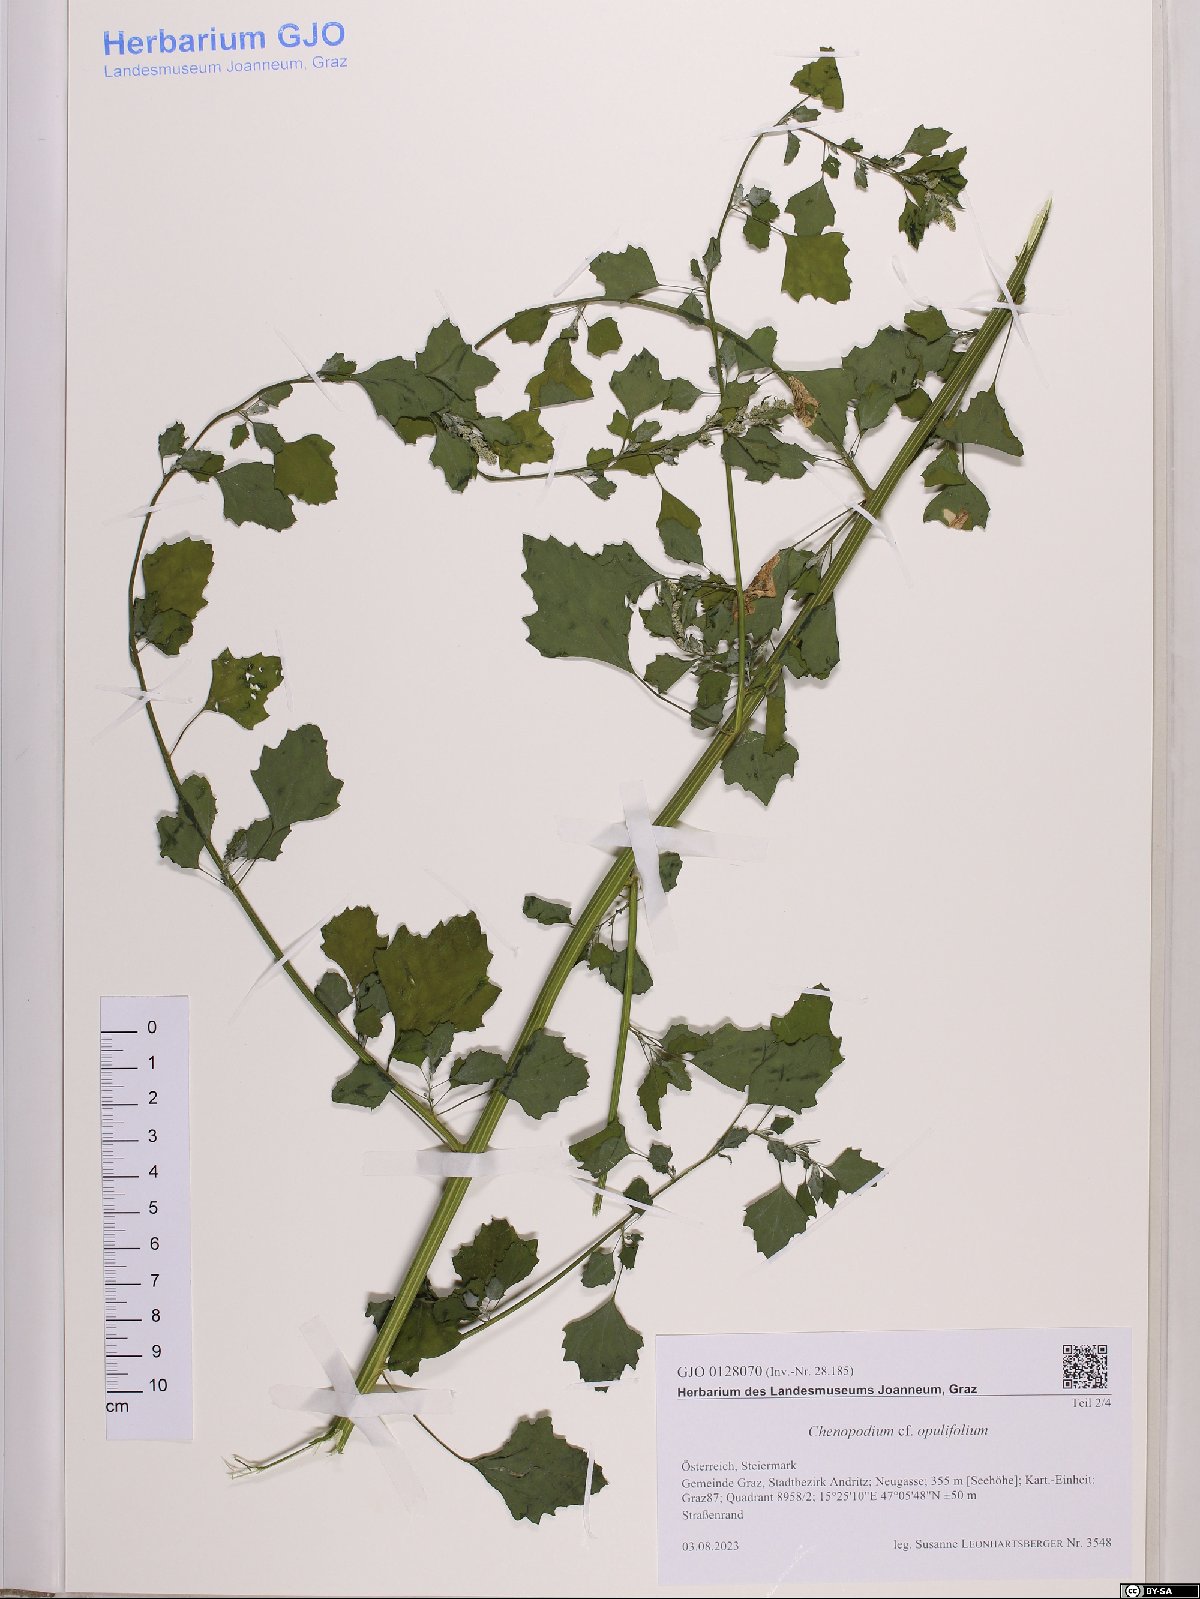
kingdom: Plantae
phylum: Tracheophyta
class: Magnoliopsida
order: Caryophyllales
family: Amaranthaceae
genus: Chenopodium
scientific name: Chenopodium opulifolium
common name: Grey goosefoot
